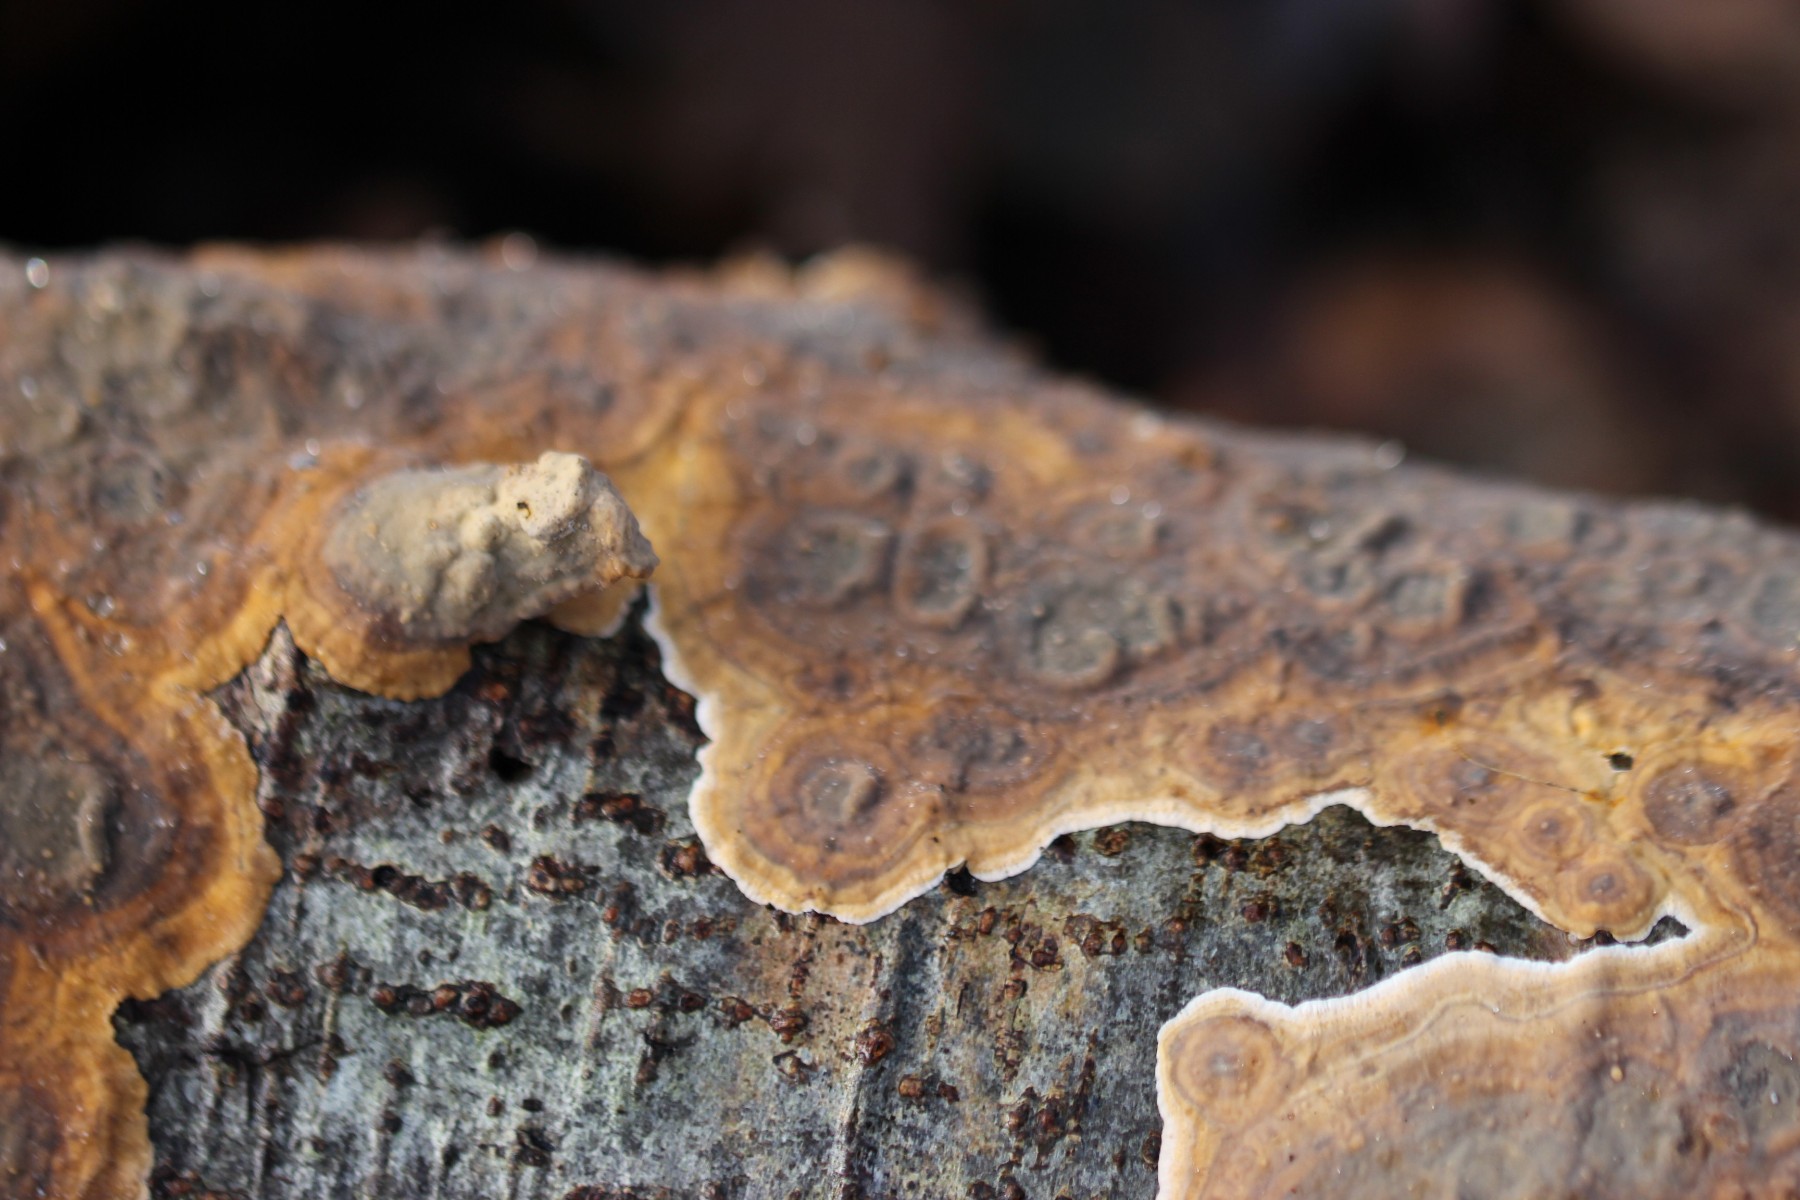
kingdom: Fungi
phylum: Basidiomycota
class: Agaricomycetes
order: Russulales
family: Stereaceae
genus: Stereum
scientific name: Stereum
